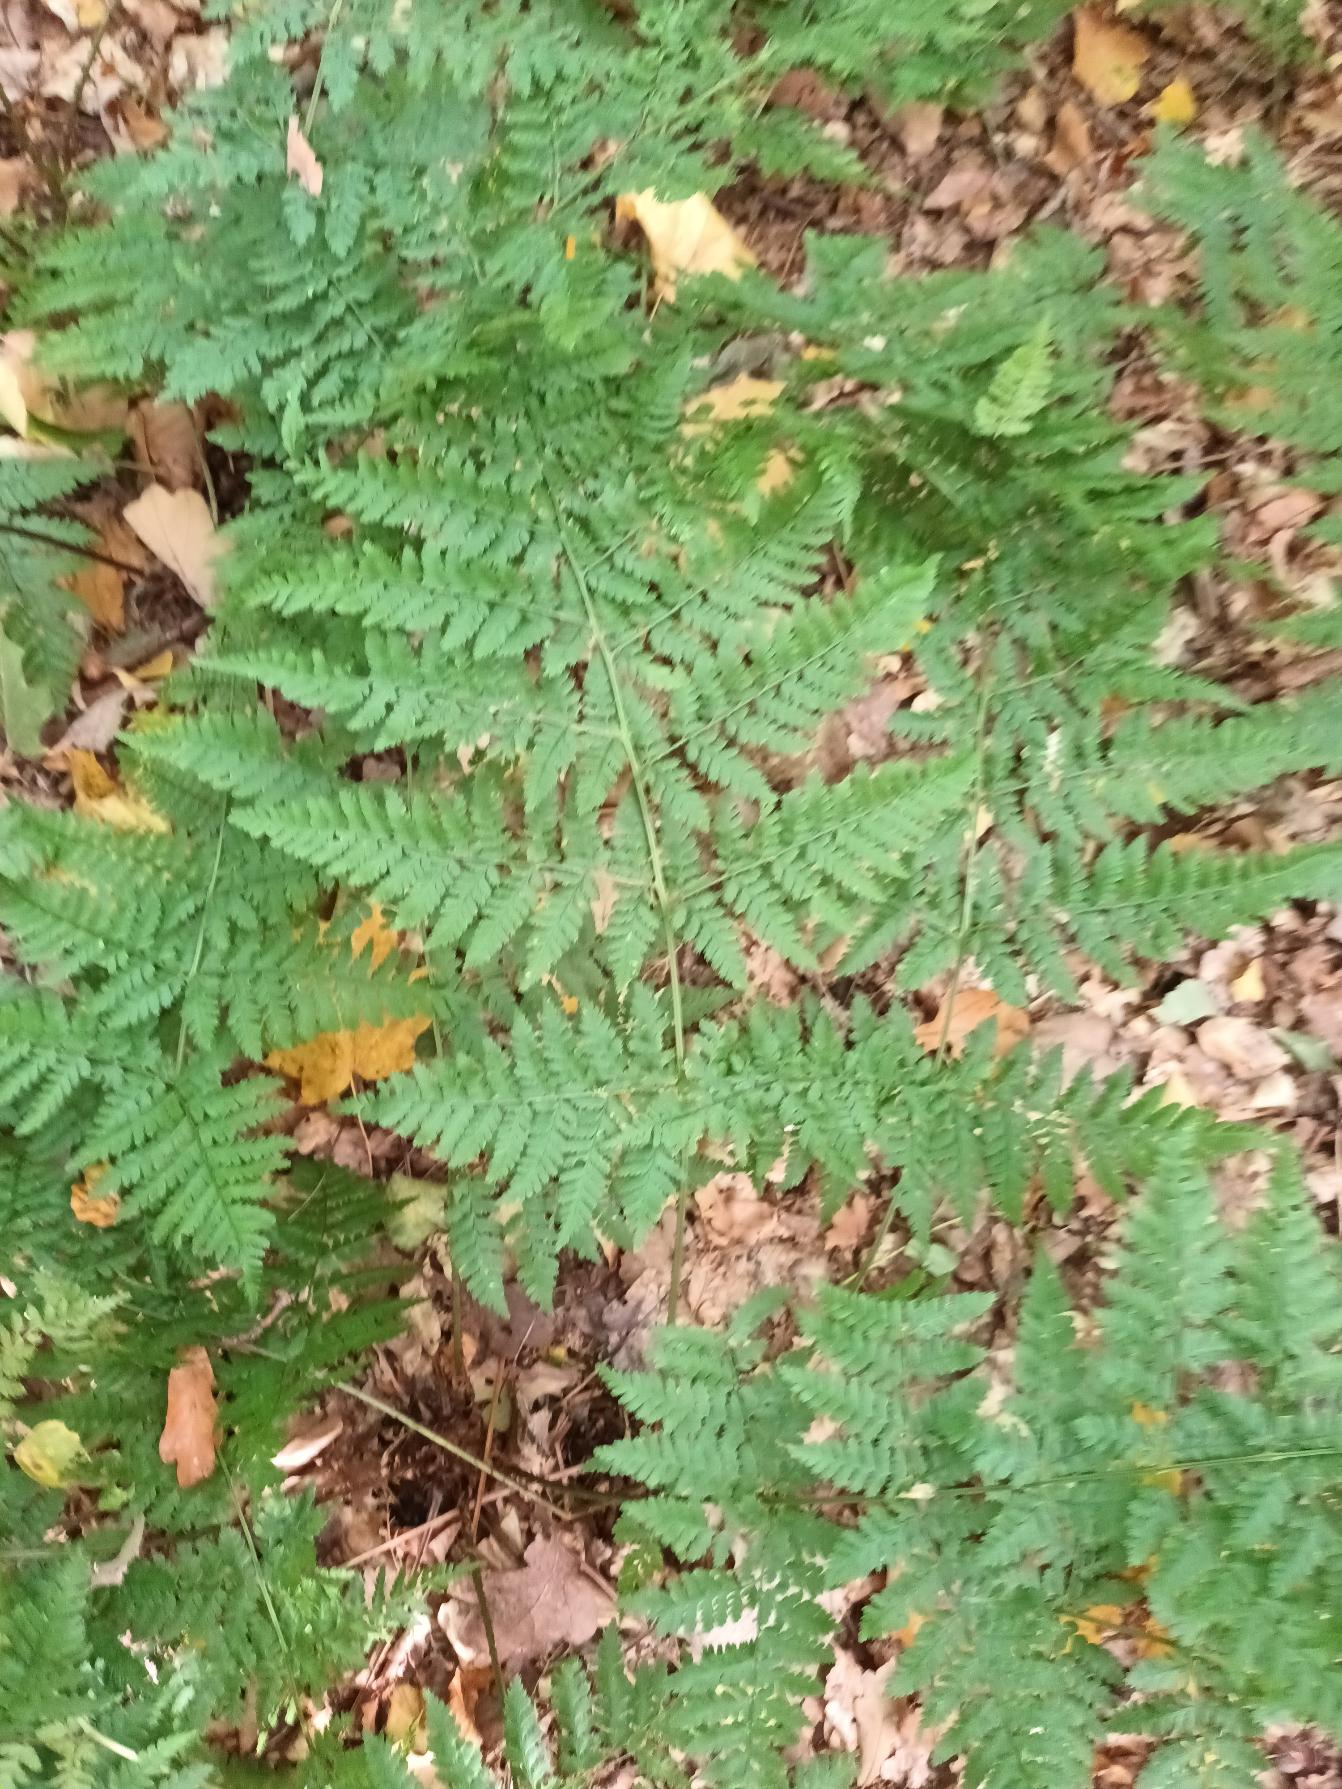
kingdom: Plantae
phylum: Tracheophyta
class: Polypodiopsida
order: Polypodiales
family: Dryopteridaceae
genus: Dryopteris
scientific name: Dryopteris dilatata
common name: Bredbladet mangeløv
